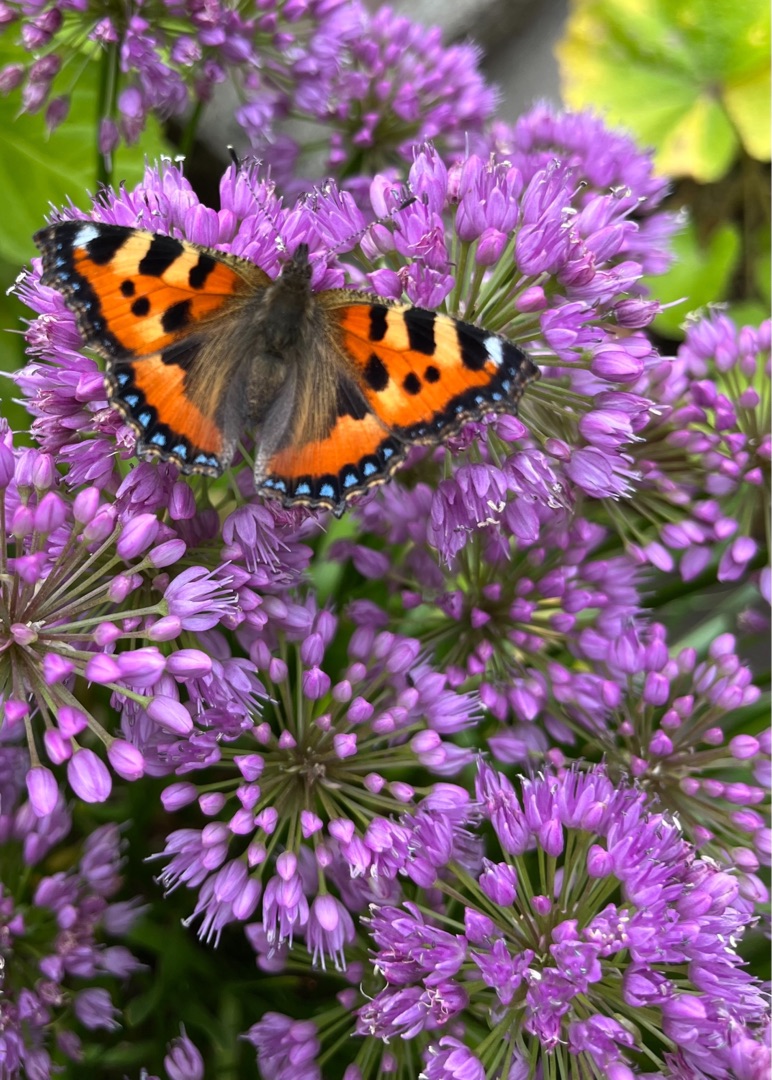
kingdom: Animalia
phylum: Arthropoda
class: Insecta
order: Lepidoptera
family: Nymphalidae
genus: Aglais
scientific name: Aglais urticae
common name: Nældens takvinge
